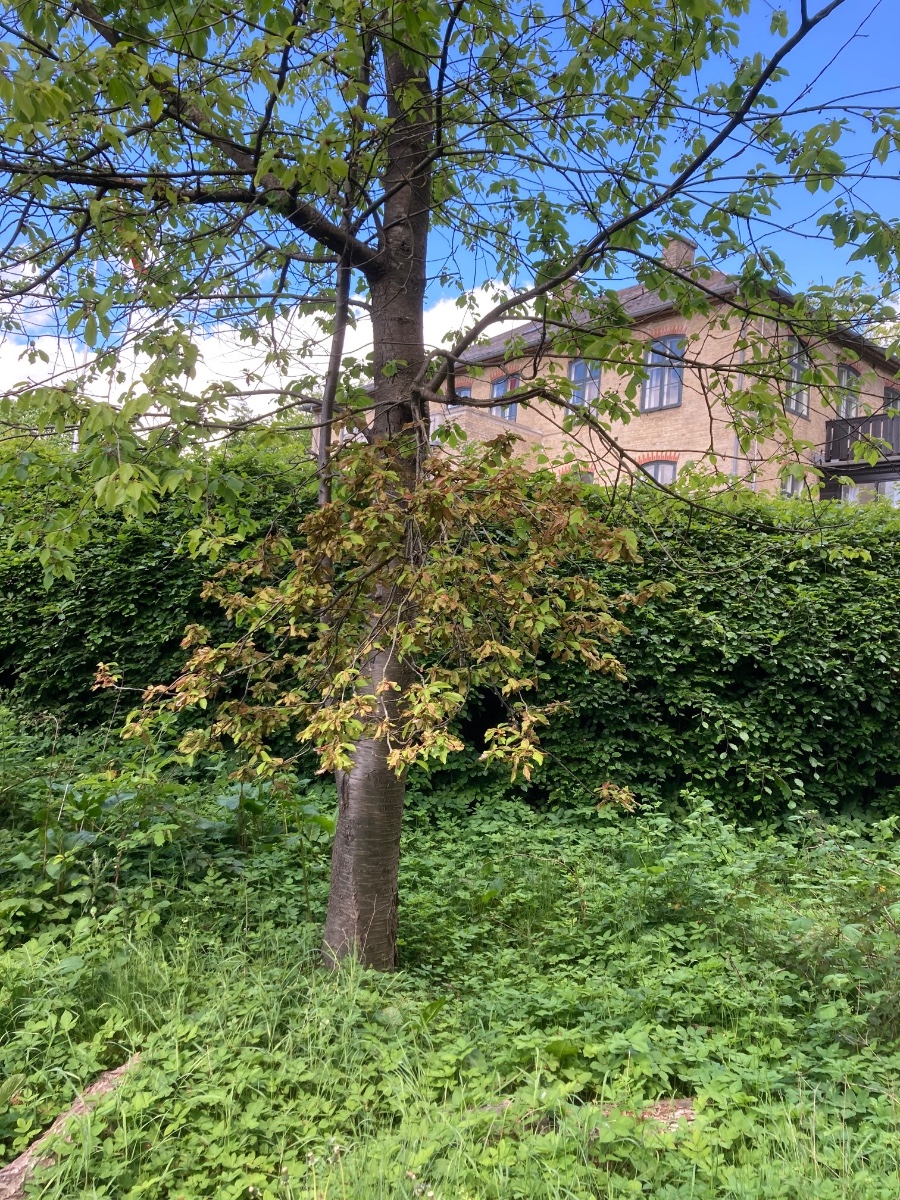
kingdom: Fungi
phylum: Ascomycota
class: Taphrinomycetes
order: Taphrinales
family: Taphrinaceae
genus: Taphrina
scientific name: Taphrina wiesneri
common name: Cherry leaf curl
